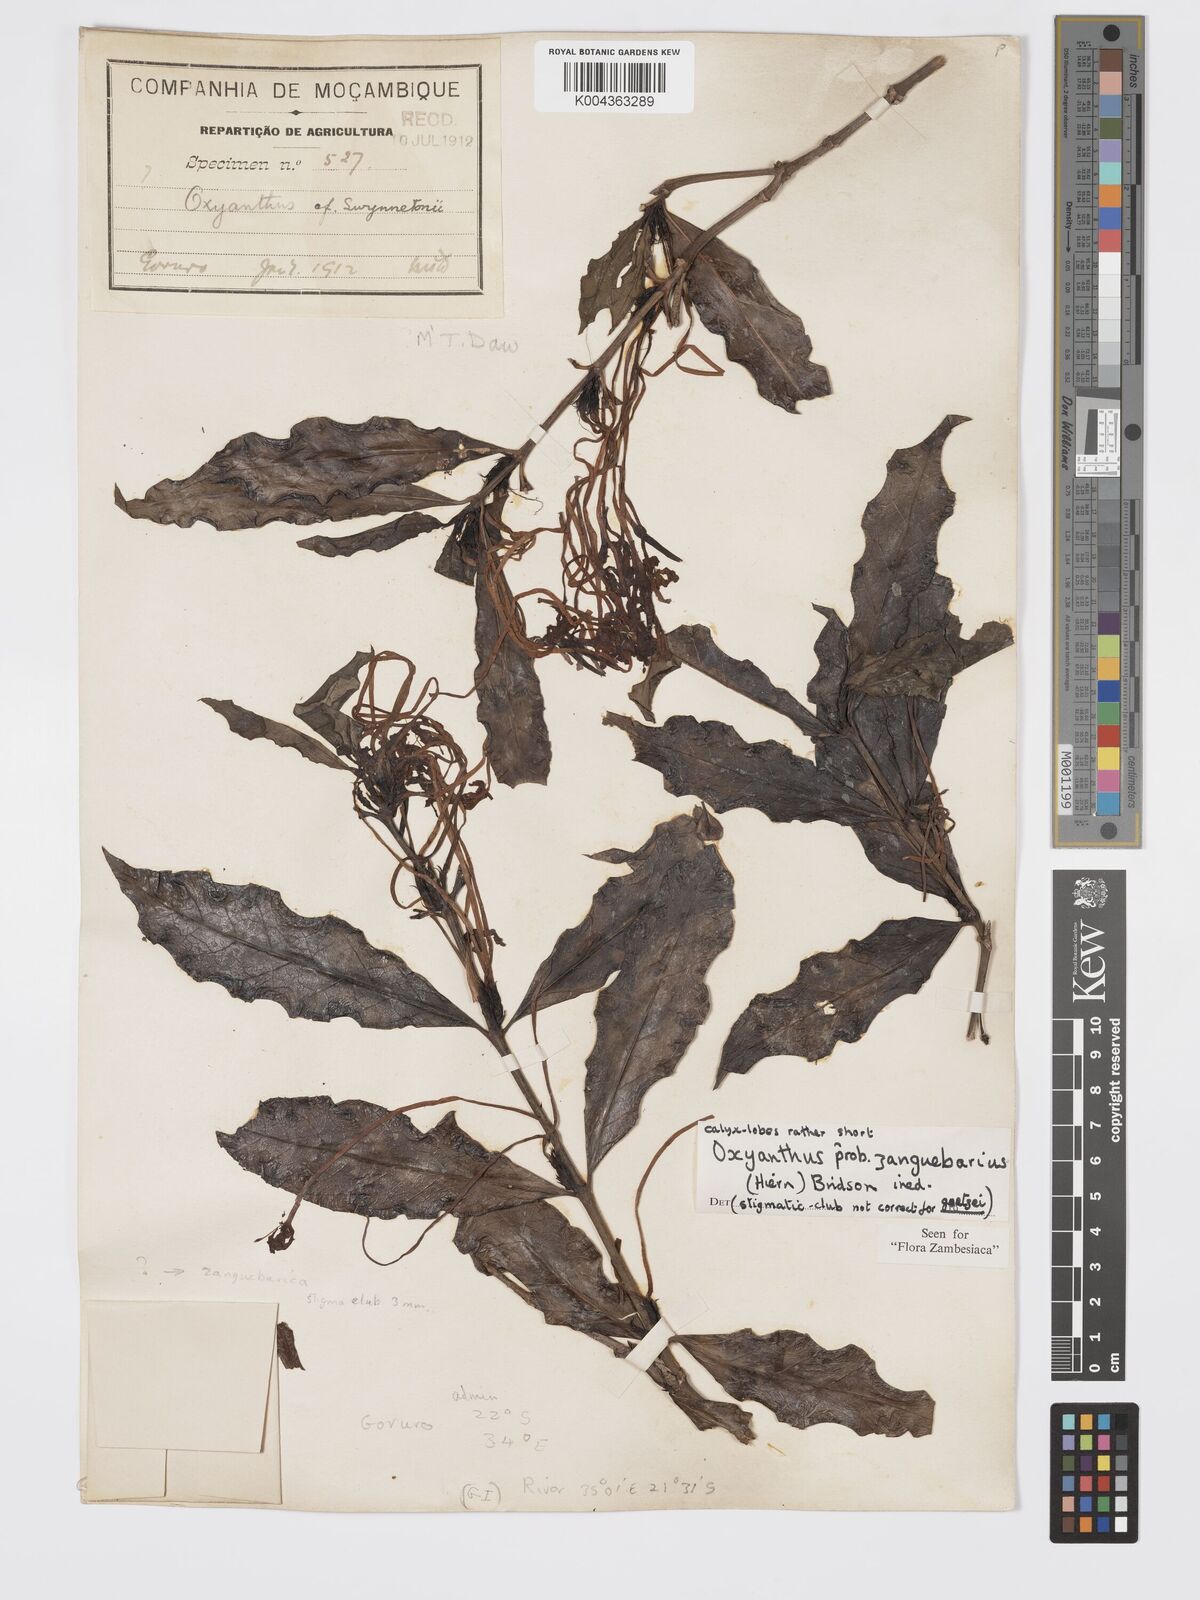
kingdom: Plantae
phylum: Tracheophyta
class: Magnoliopsida
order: Gentianales
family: Rubiaceae
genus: Oxyanthus
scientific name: Oxyanthus zanguebaricus
